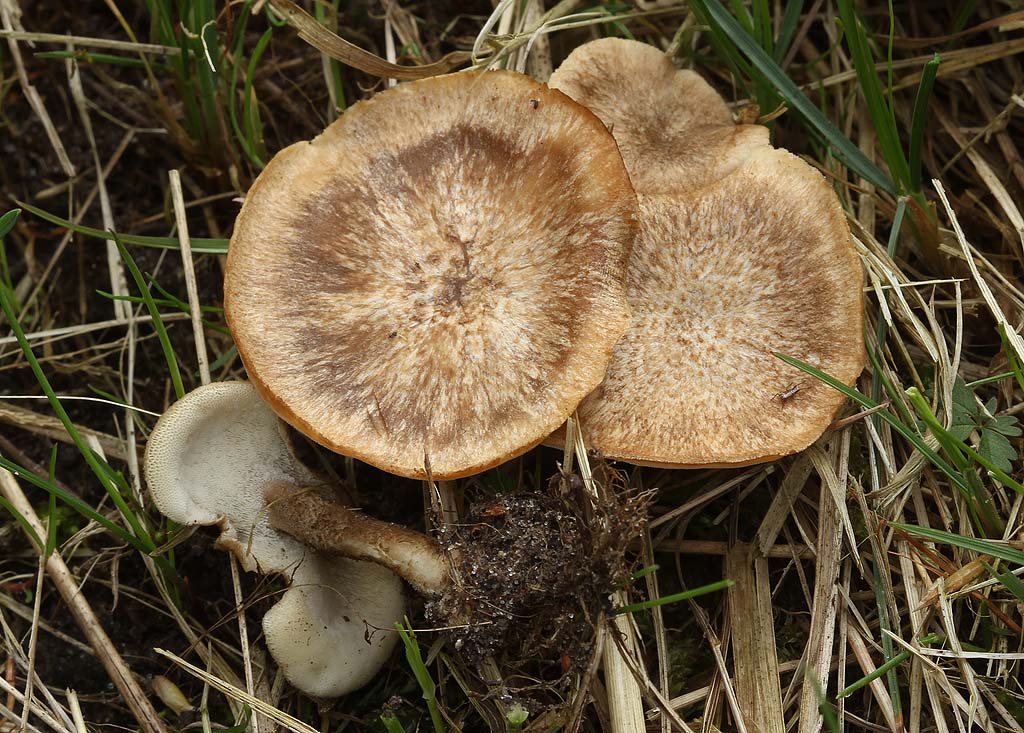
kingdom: Fungi
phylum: Basidiomycota
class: Agaricomycetes
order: Polyporales
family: Polyporaceae
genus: Lentinus
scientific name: Lentinus substrictus
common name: forårs-stilkporesvamp
